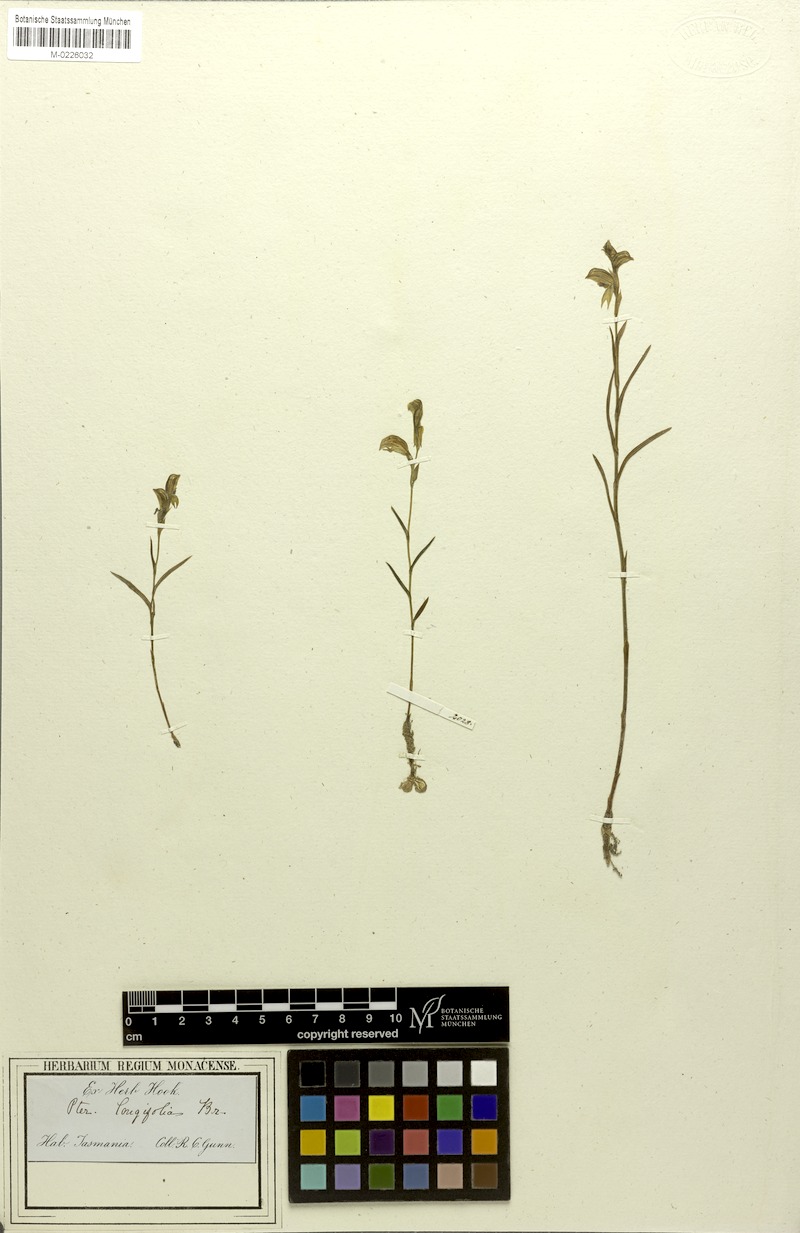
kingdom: Plantae
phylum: Tracheophyta
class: Liliopsida
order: Asparagales
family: Orchidaceae
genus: Pterostylis
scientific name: Pterostylis longifolia
